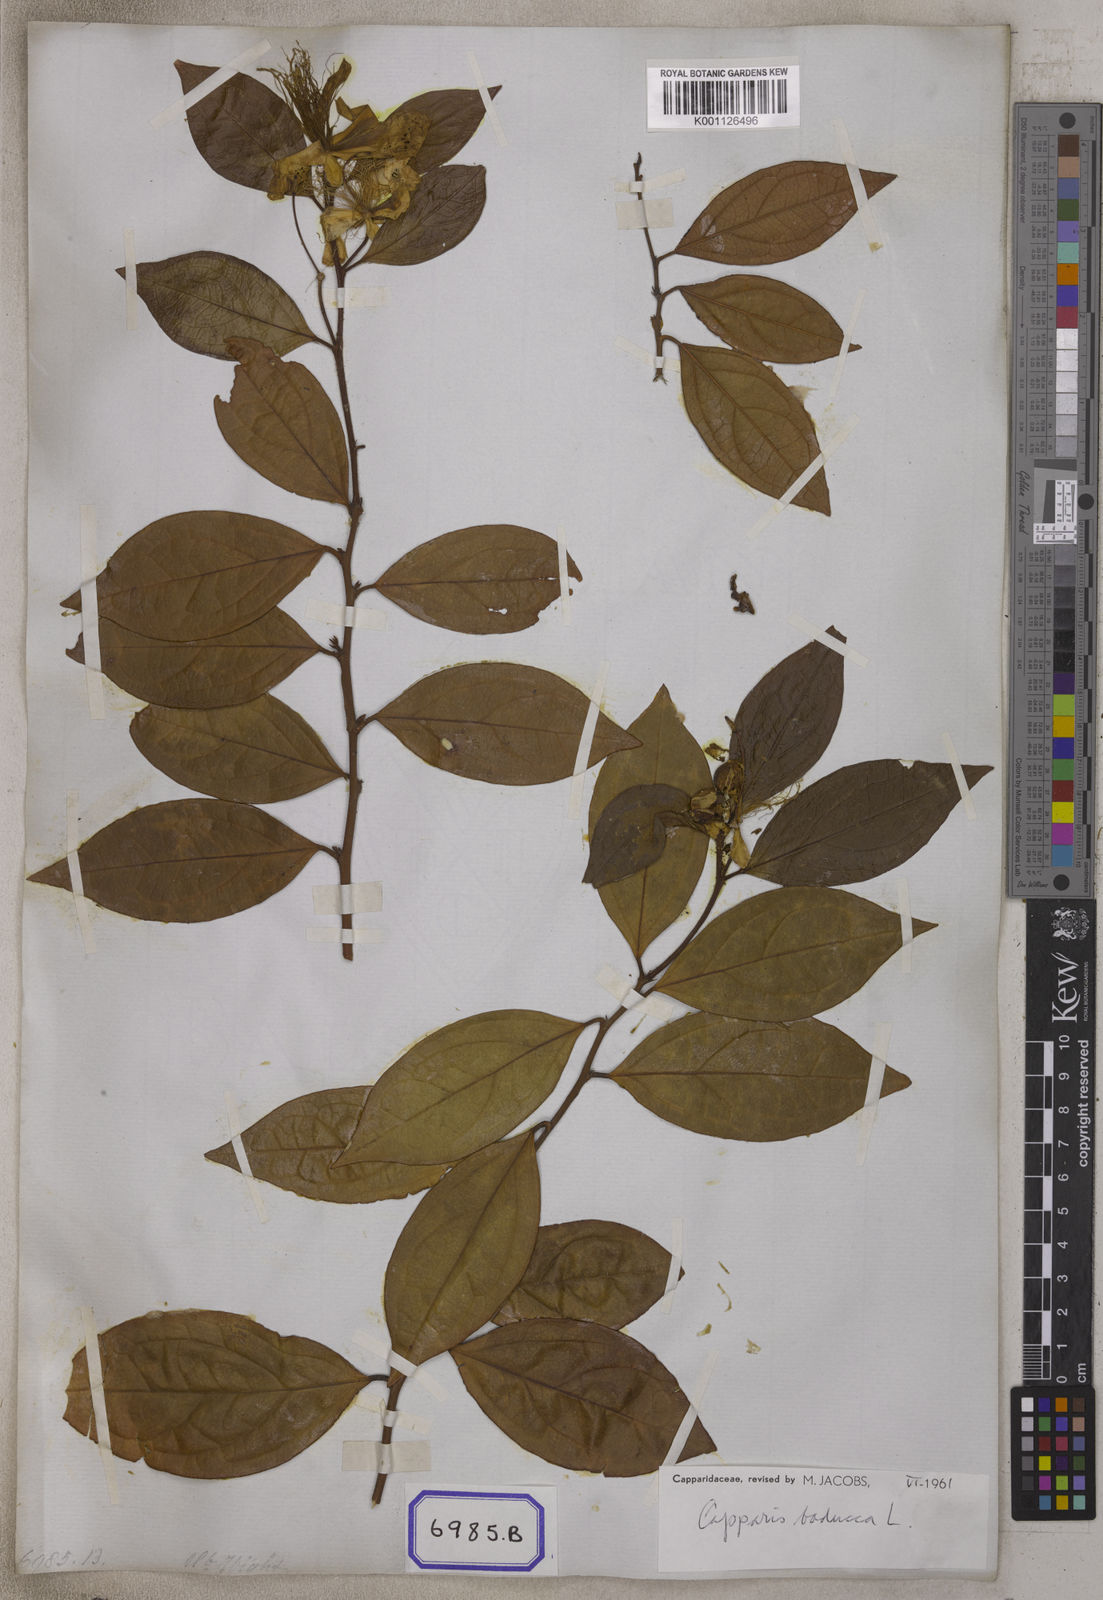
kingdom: Plantae
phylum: Tracheophyta
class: Magnoliopsida
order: Brassicales
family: Capparaceae
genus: Capparis
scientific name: Capparis
